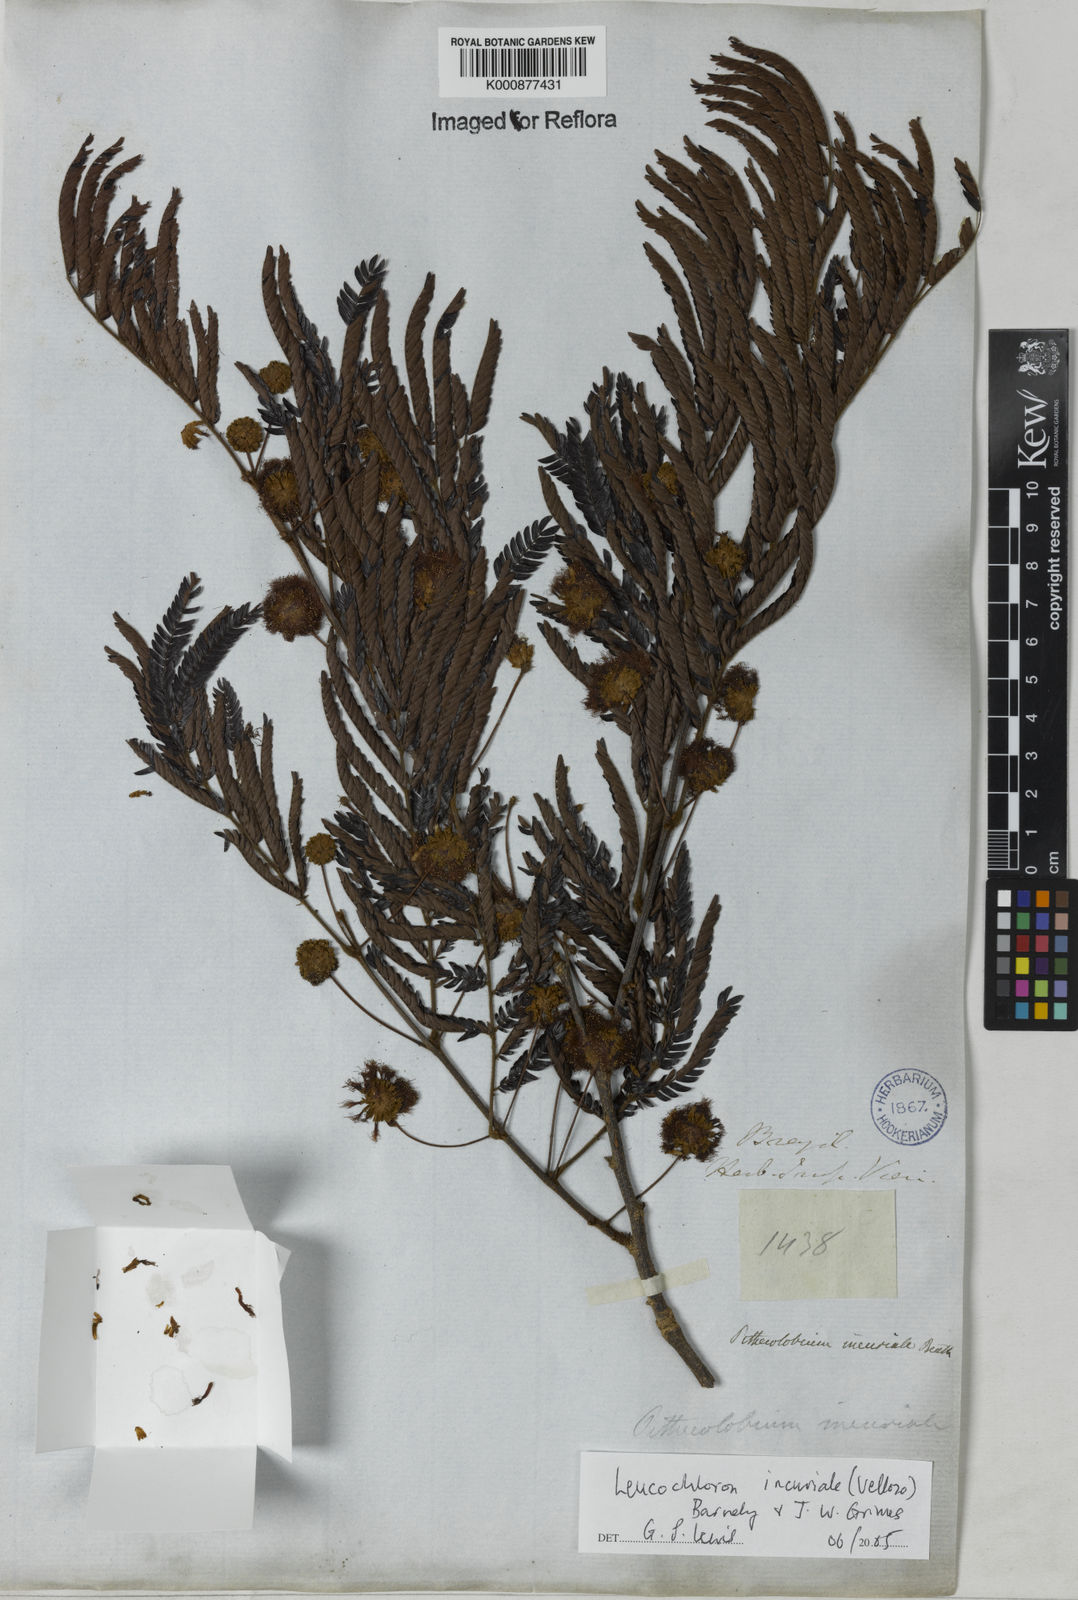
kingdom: Plantae
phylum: Tracheophyta
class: Magnoliopsida
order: Fabales
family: Fabaceae
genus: Leucochloron
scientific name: Leucochloron incuriale
